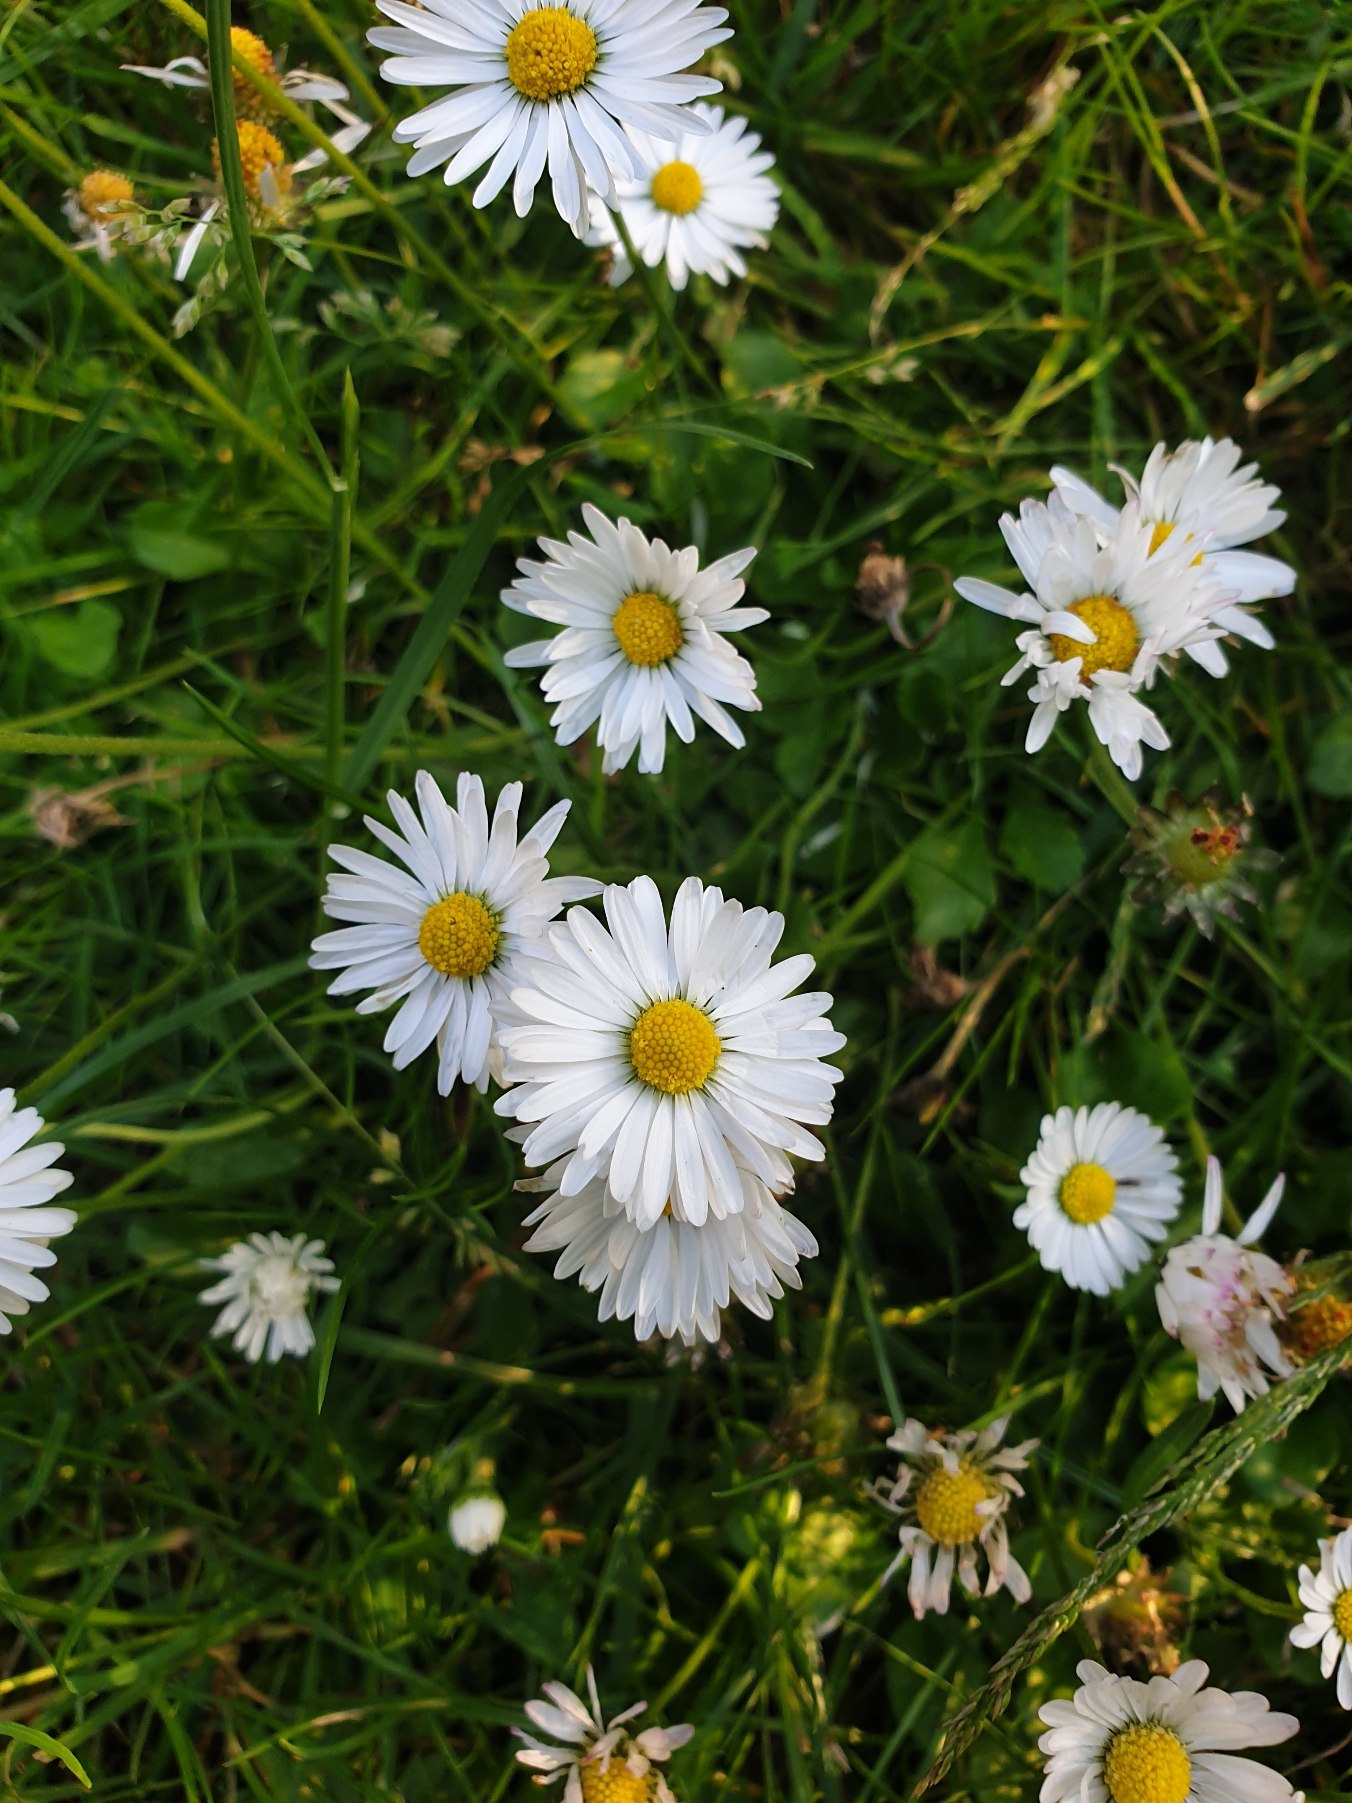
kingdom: Plantae
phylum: Tracheophyta
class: Magnoliopsida
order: Asterales
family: Asteraceae
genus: Bellis
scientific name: Bellis perennis
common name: Tusindfryd
